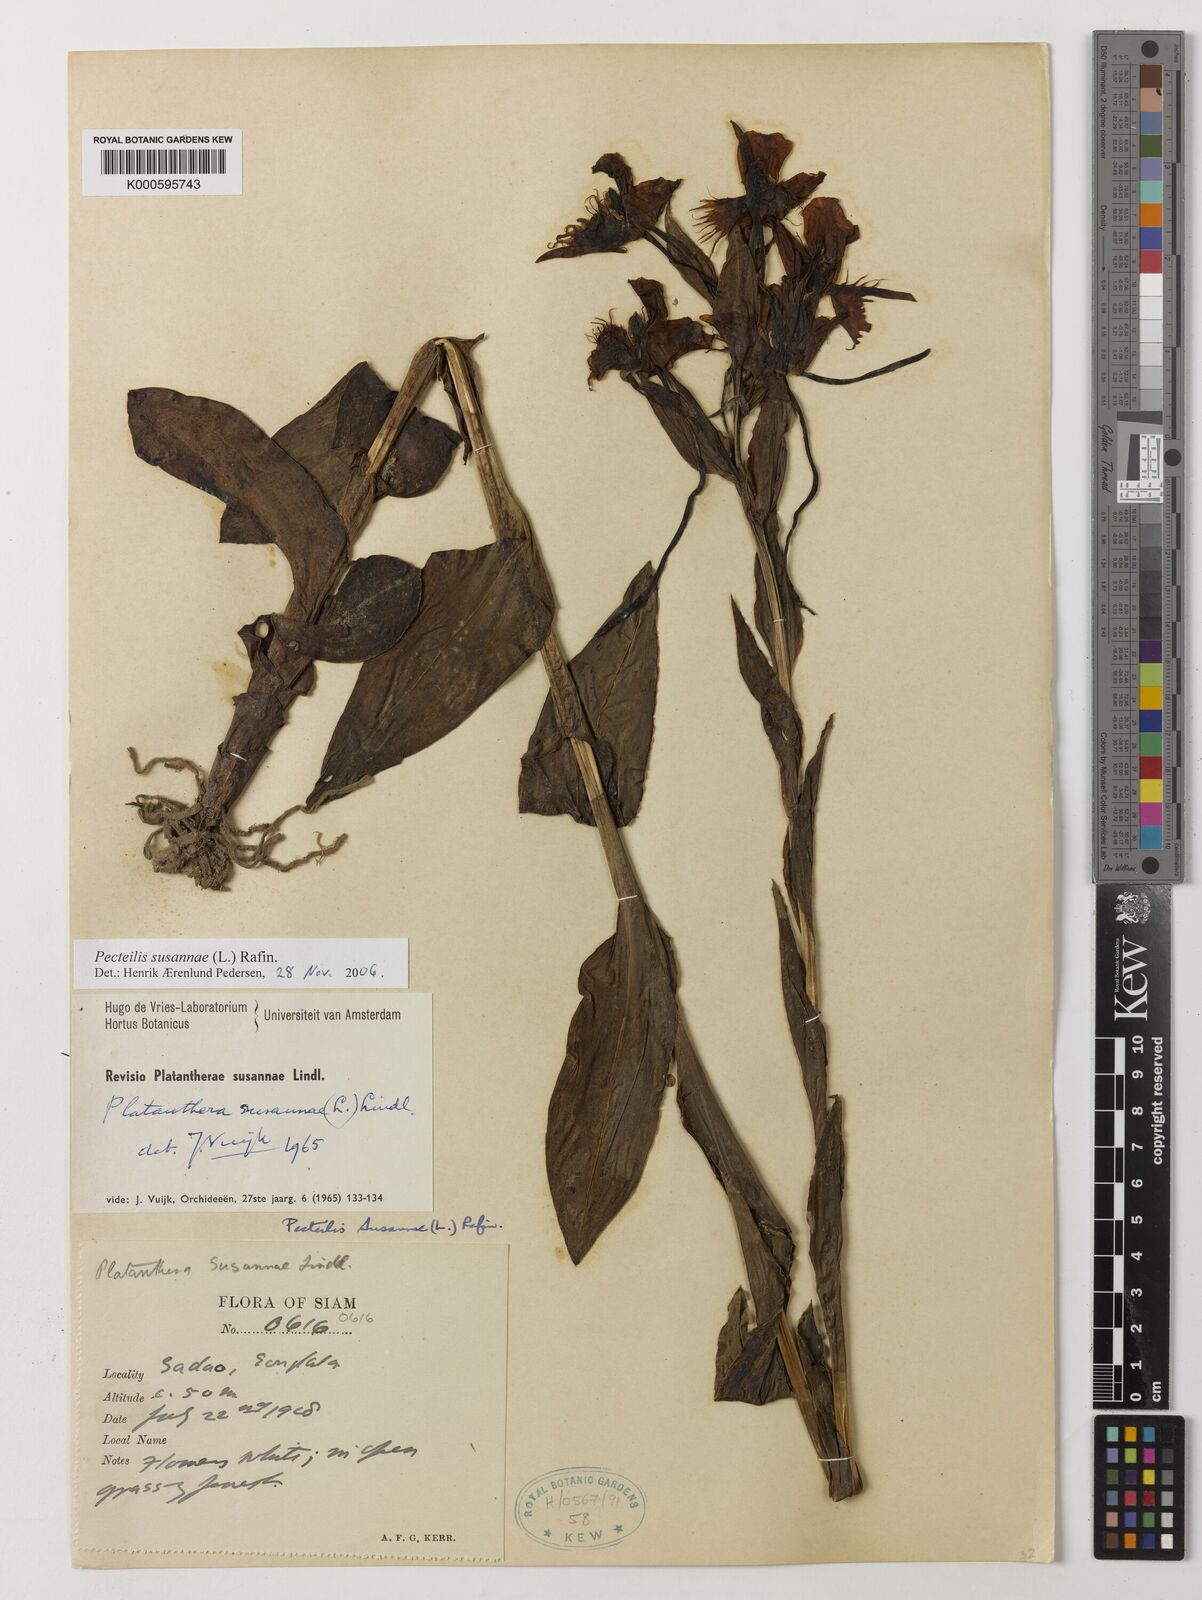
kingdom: Plantae
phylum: Tracheophyta
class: Liliopsida
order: Asparagales
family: Orchidaceae
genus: Pecteilis
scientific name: Pecteilis susannae
